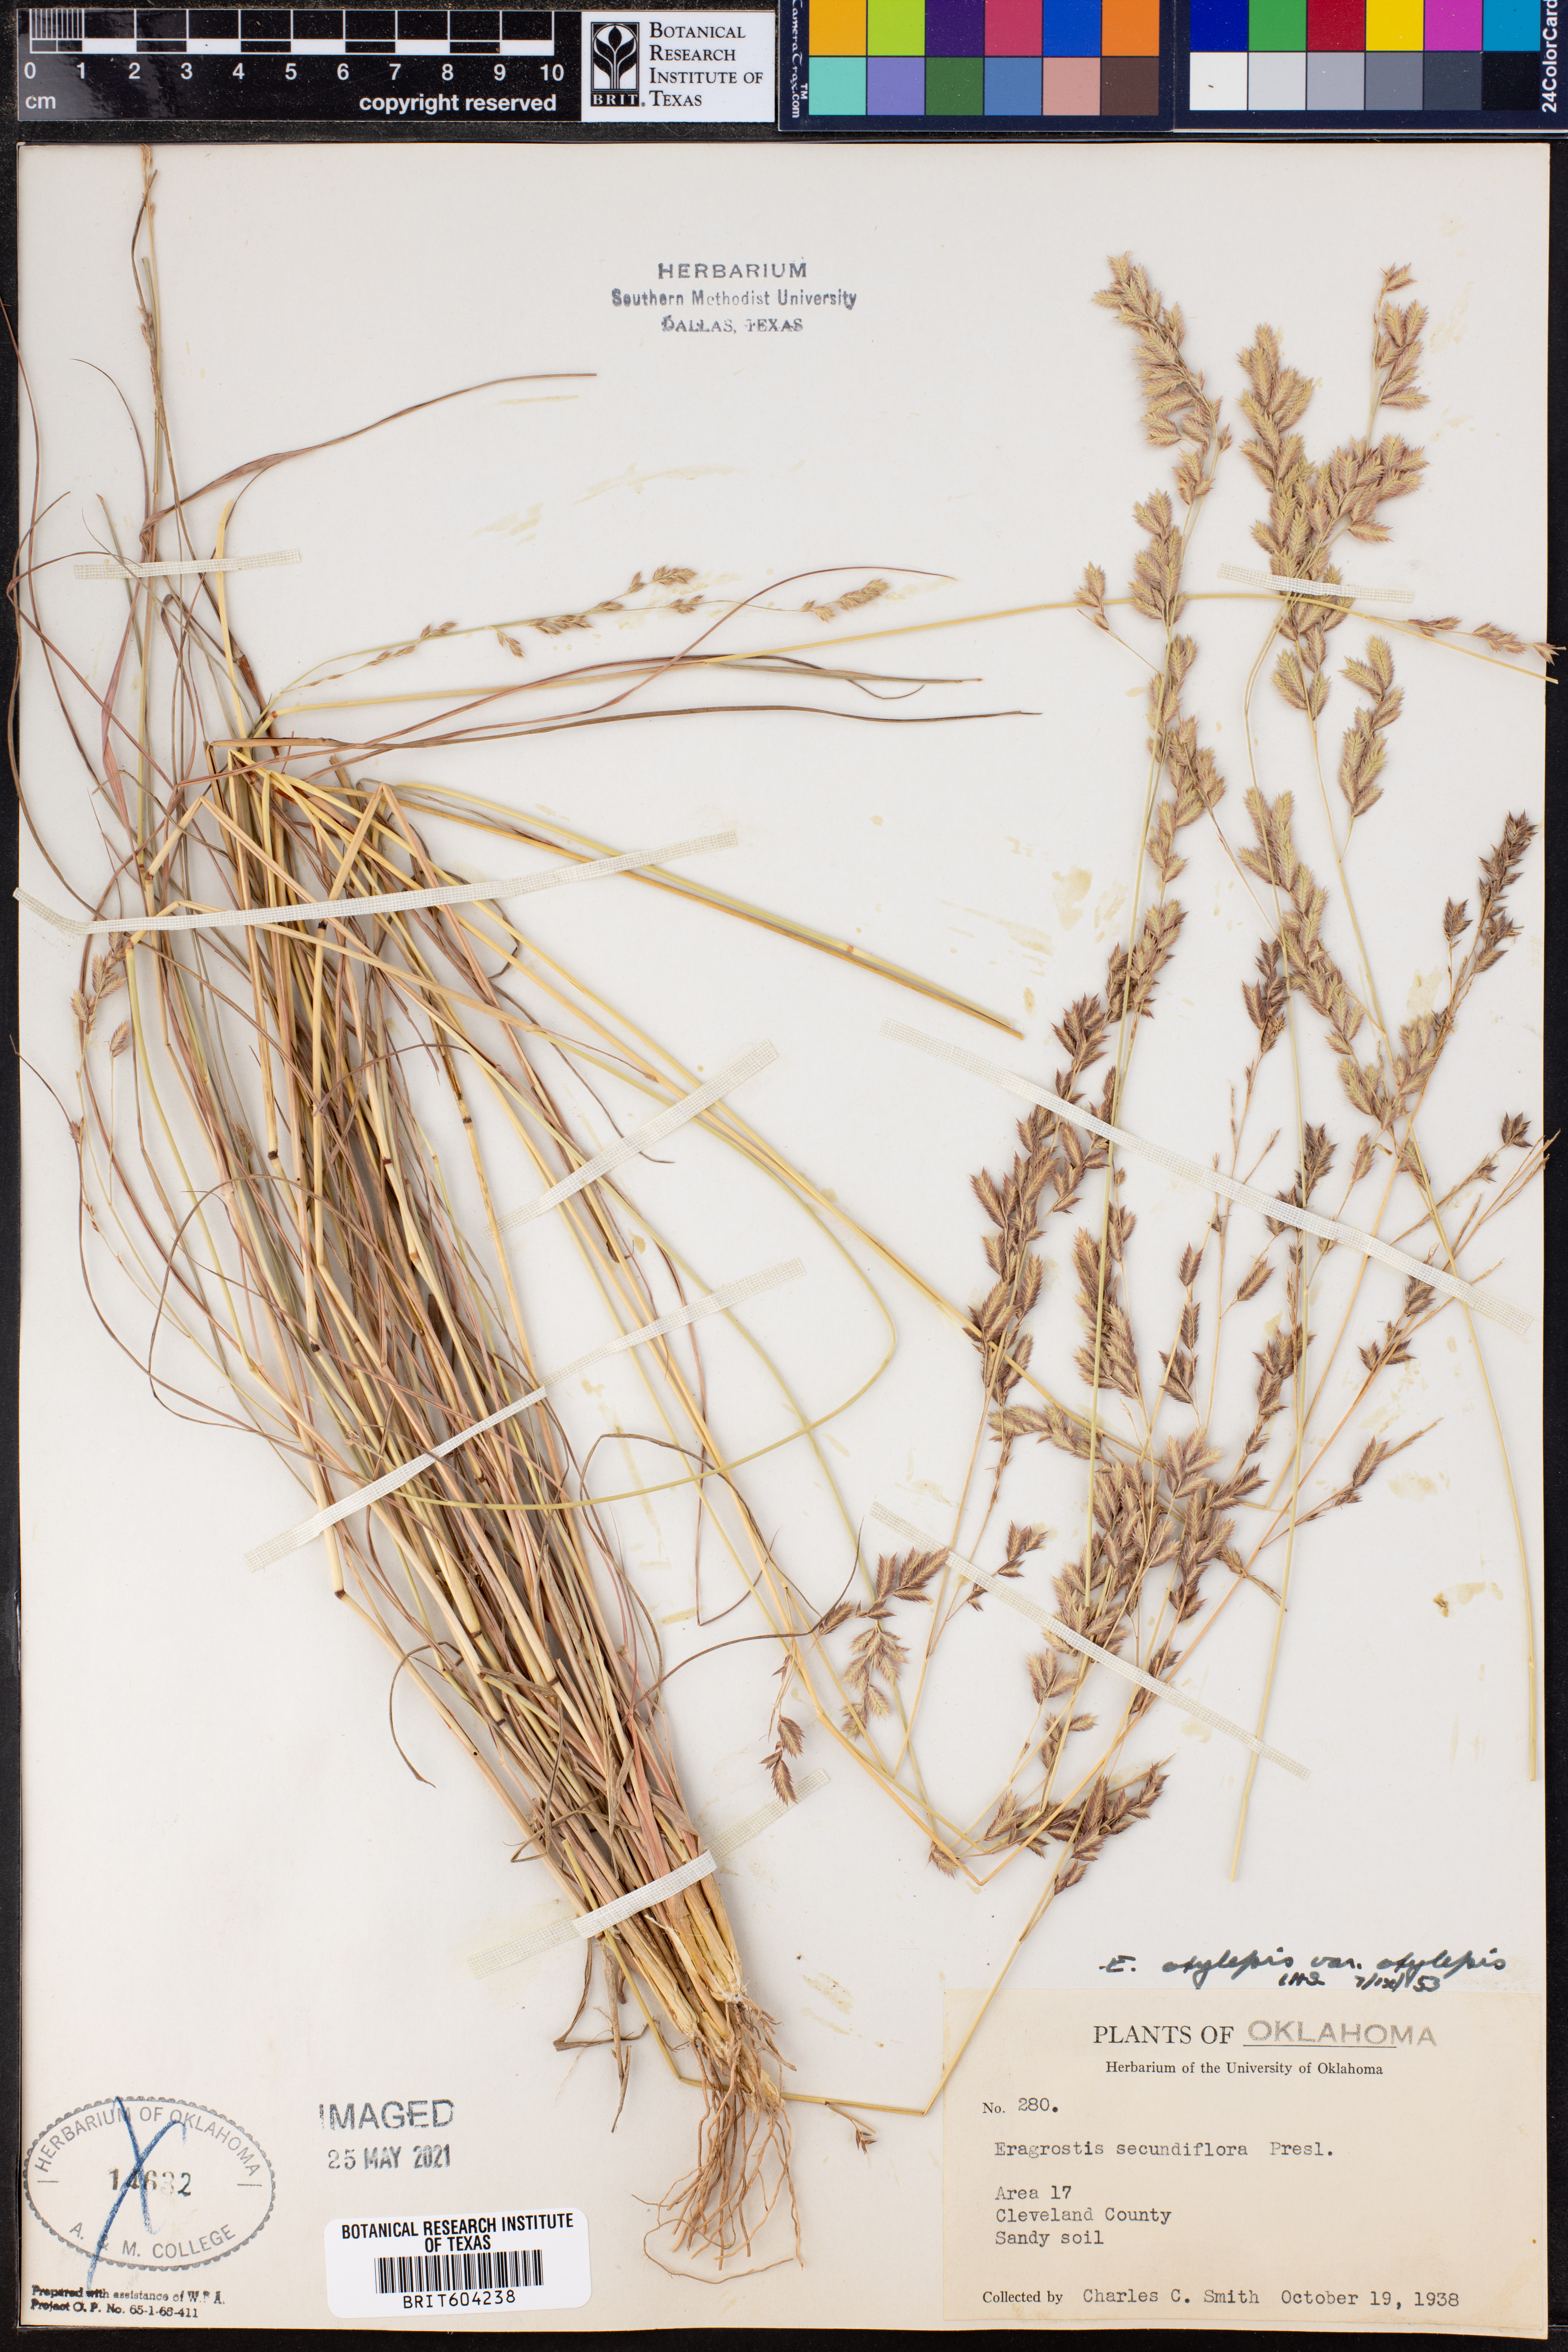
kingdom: Plantae
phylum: Tracheophyta
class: Liliopsida
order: Poales
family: Poaceae
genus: Eragrostis
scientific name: Eragrostis secundiflora
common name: Red love grass
